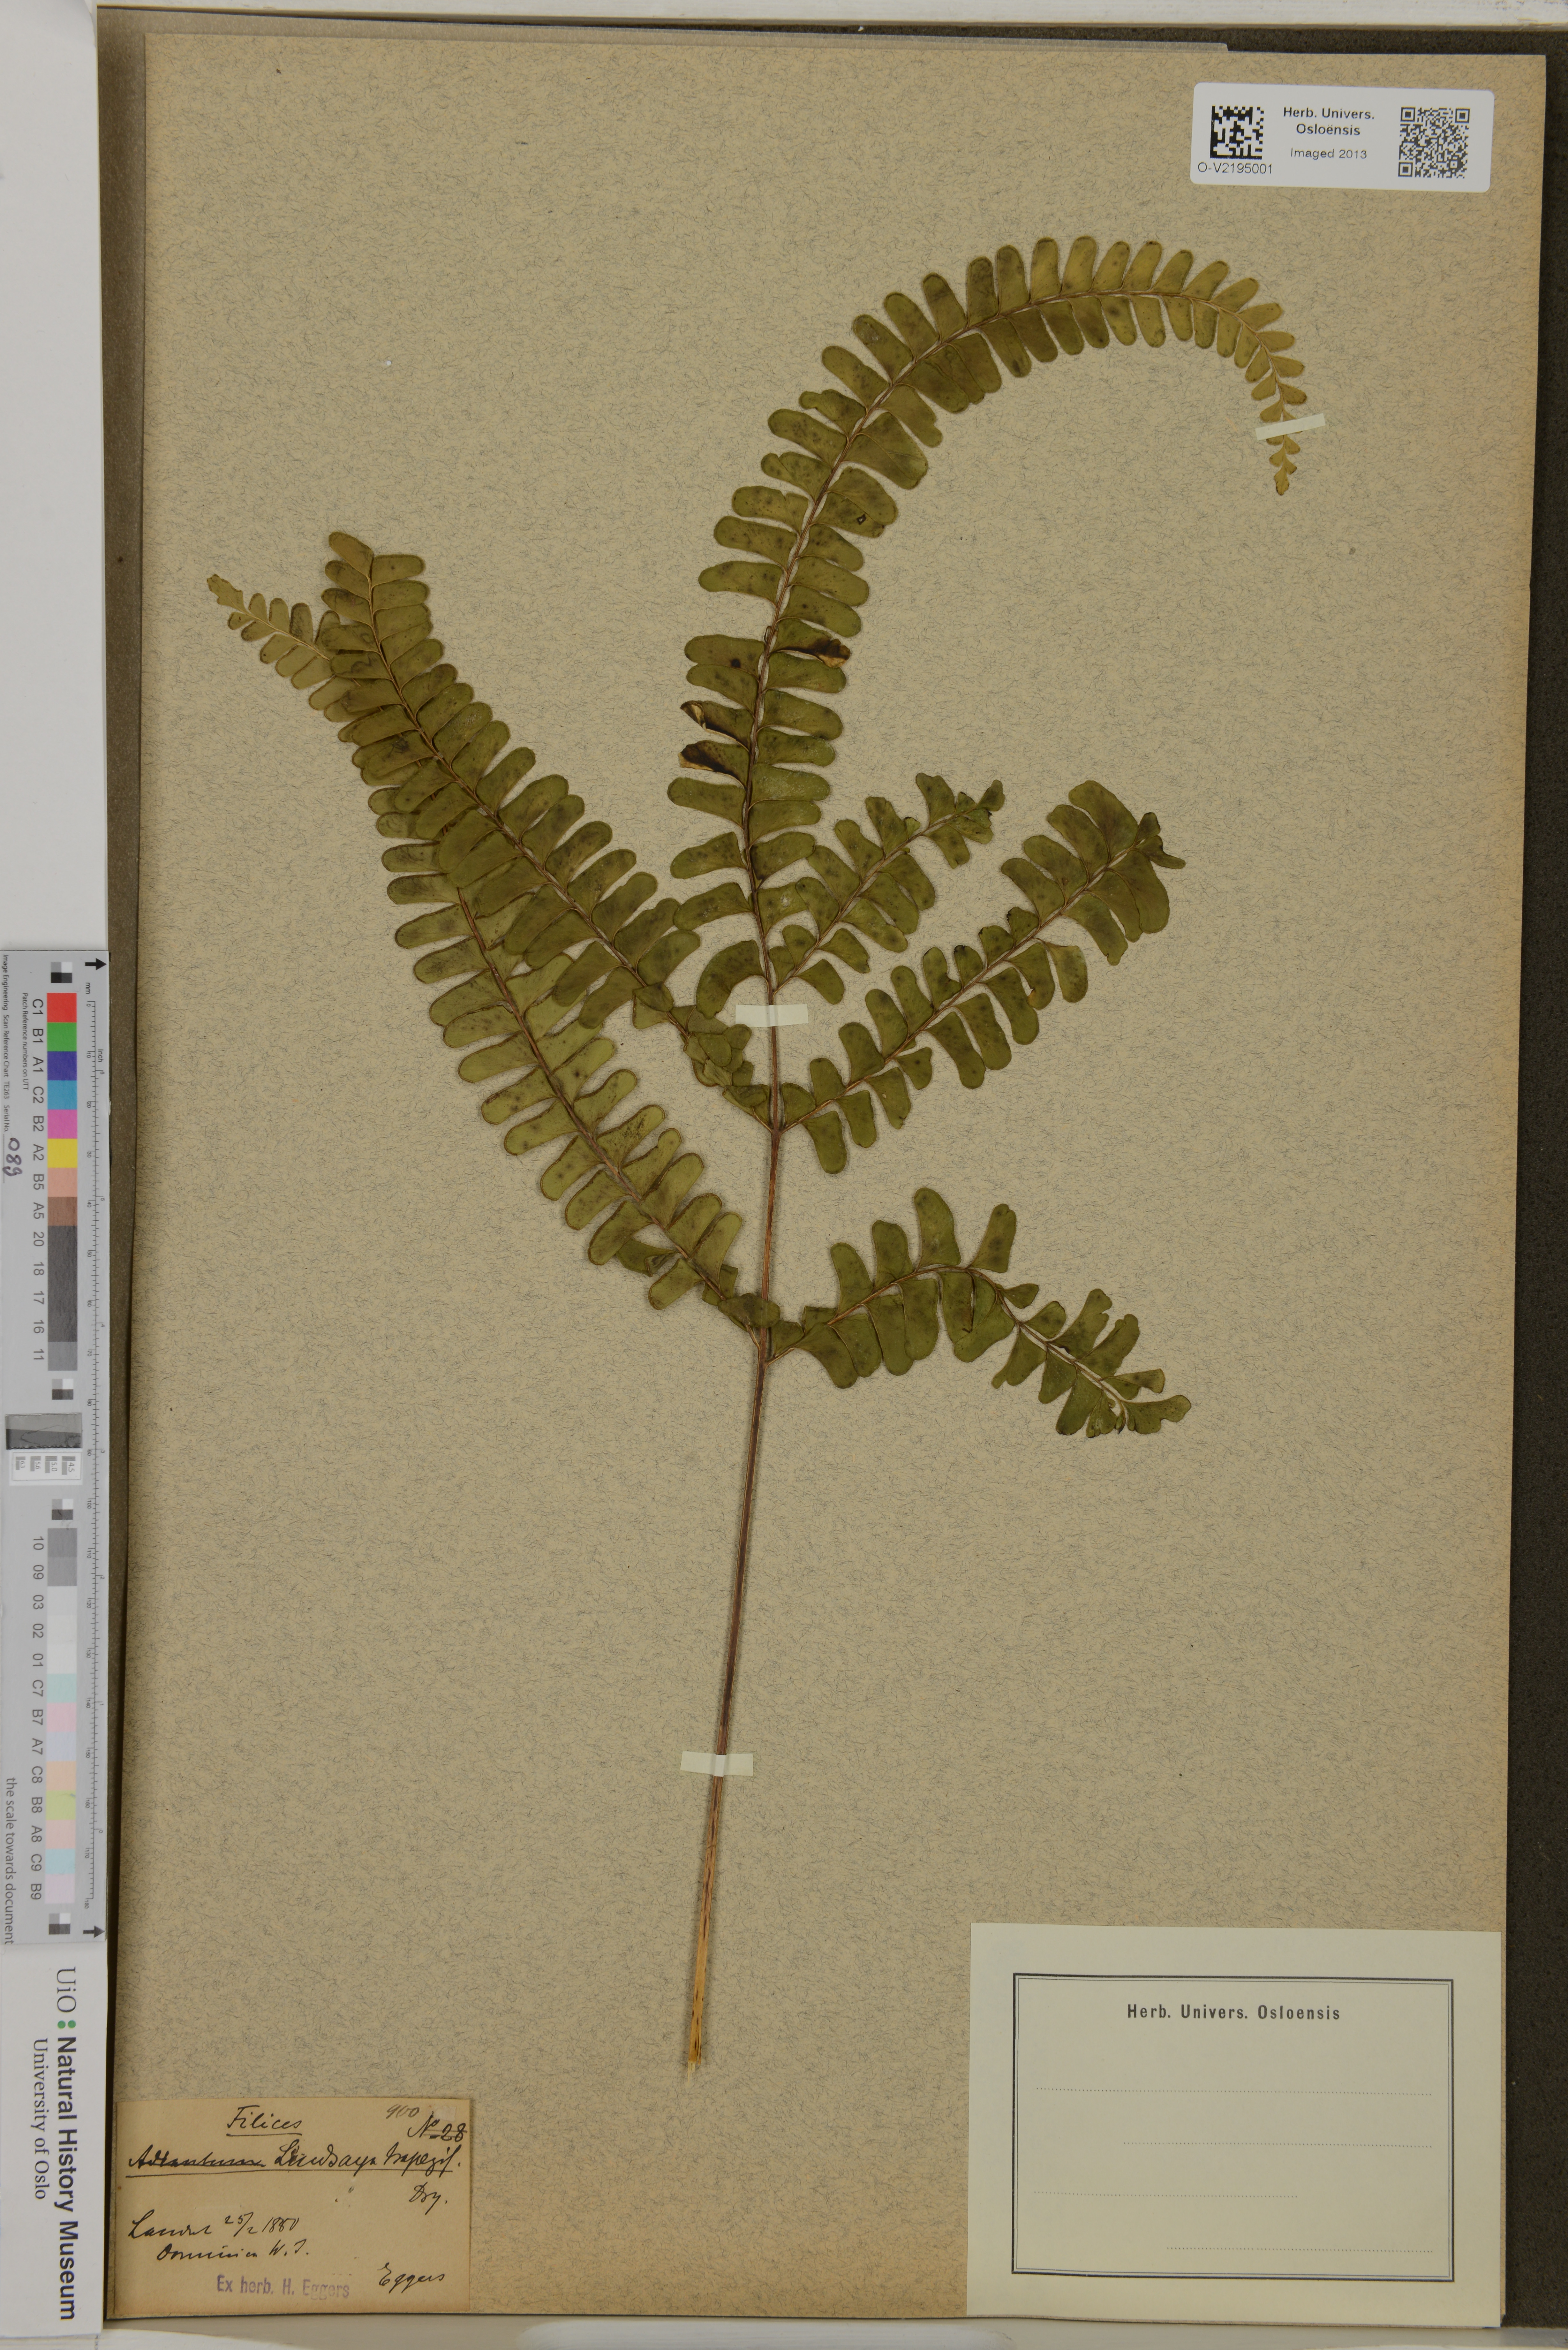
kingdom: Plantae
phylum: Tracheophyta
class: Polypodiopsida
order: Polypodiales
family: Lindsaeaceae
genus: Lindsaea
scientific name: Lindsaea
